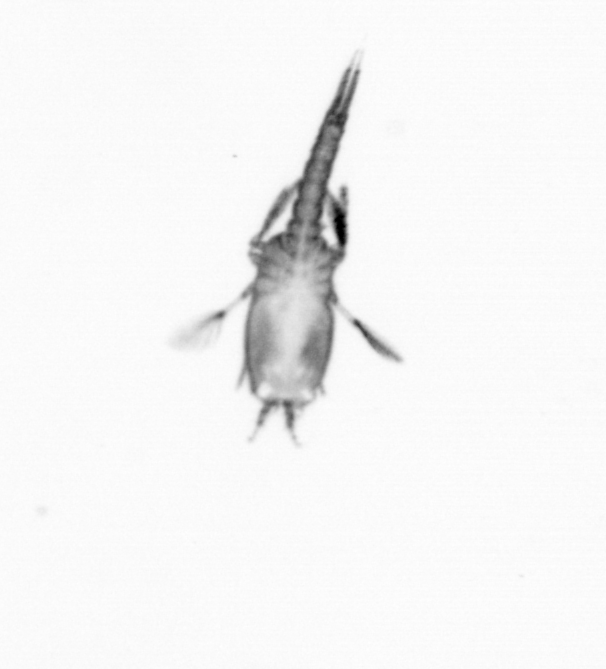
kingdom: Animalia
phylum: Arthropoda
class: Copepoda
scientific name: Copepoda
